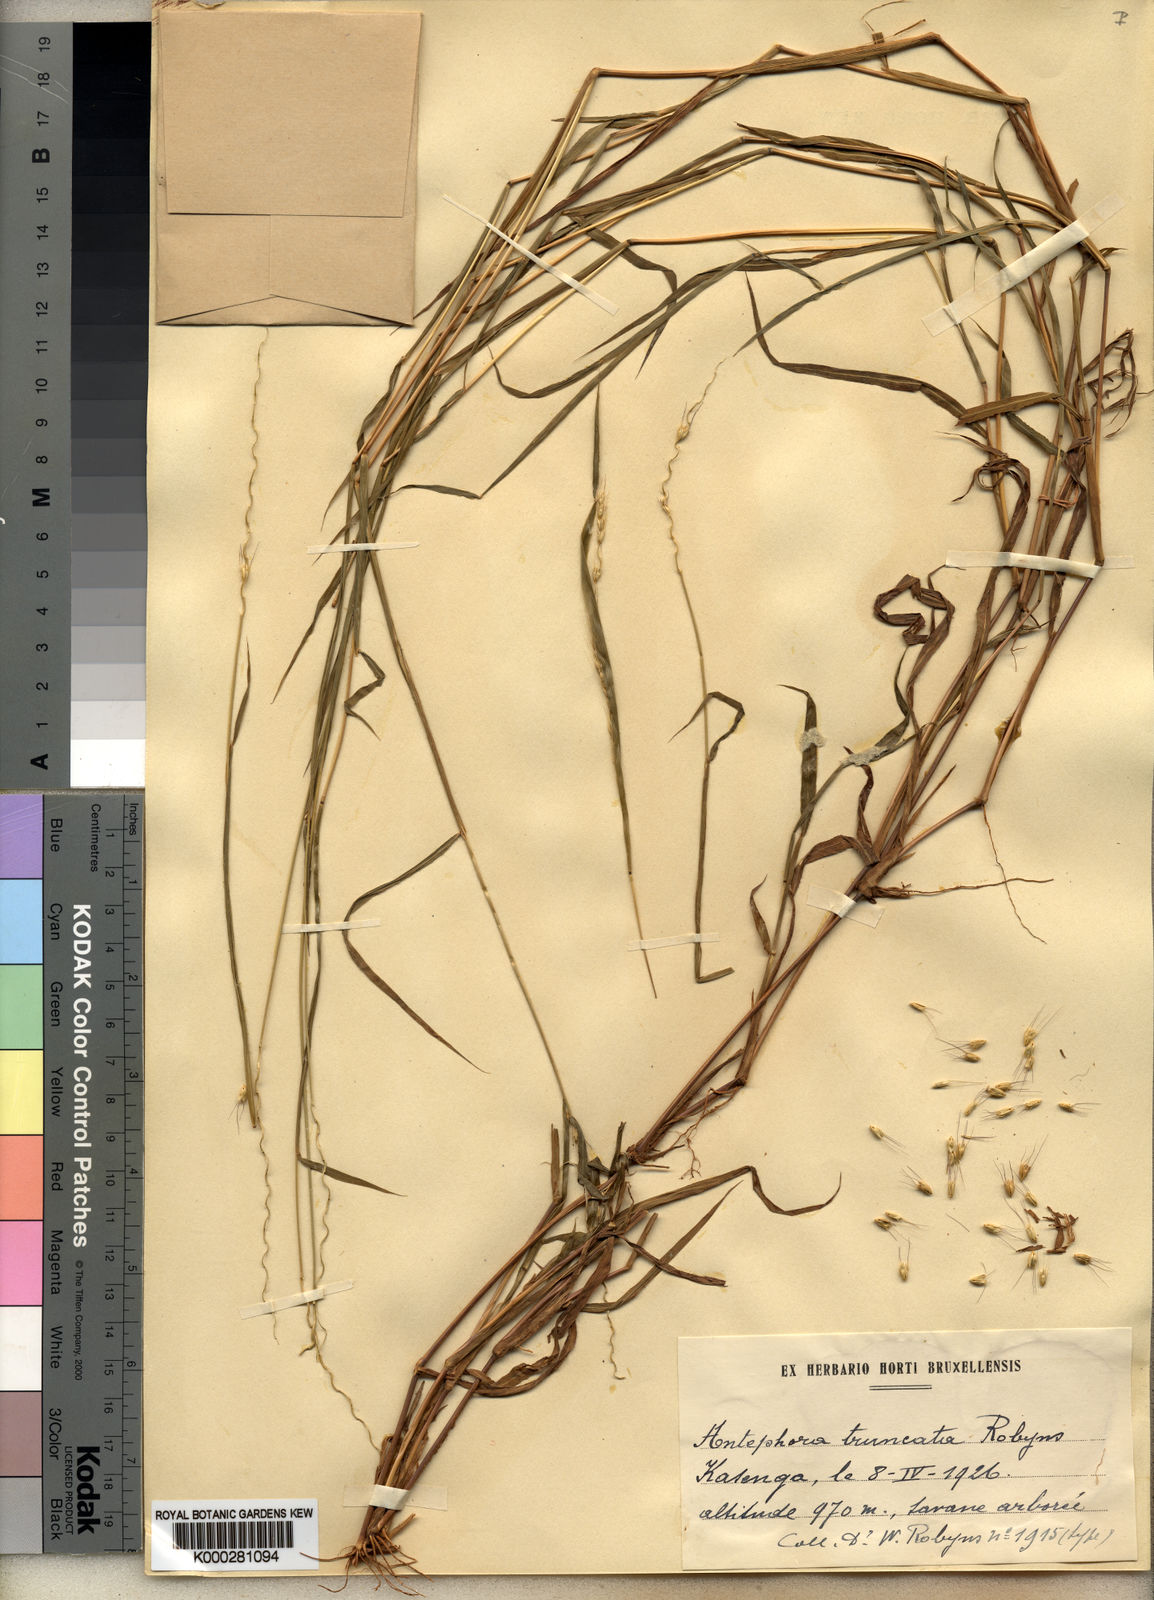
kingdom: Plantae
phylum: Tracheophyta
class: Liliopsida
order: Poales
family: Poaceae
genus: Anthephora
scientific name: Anthephora truncata
